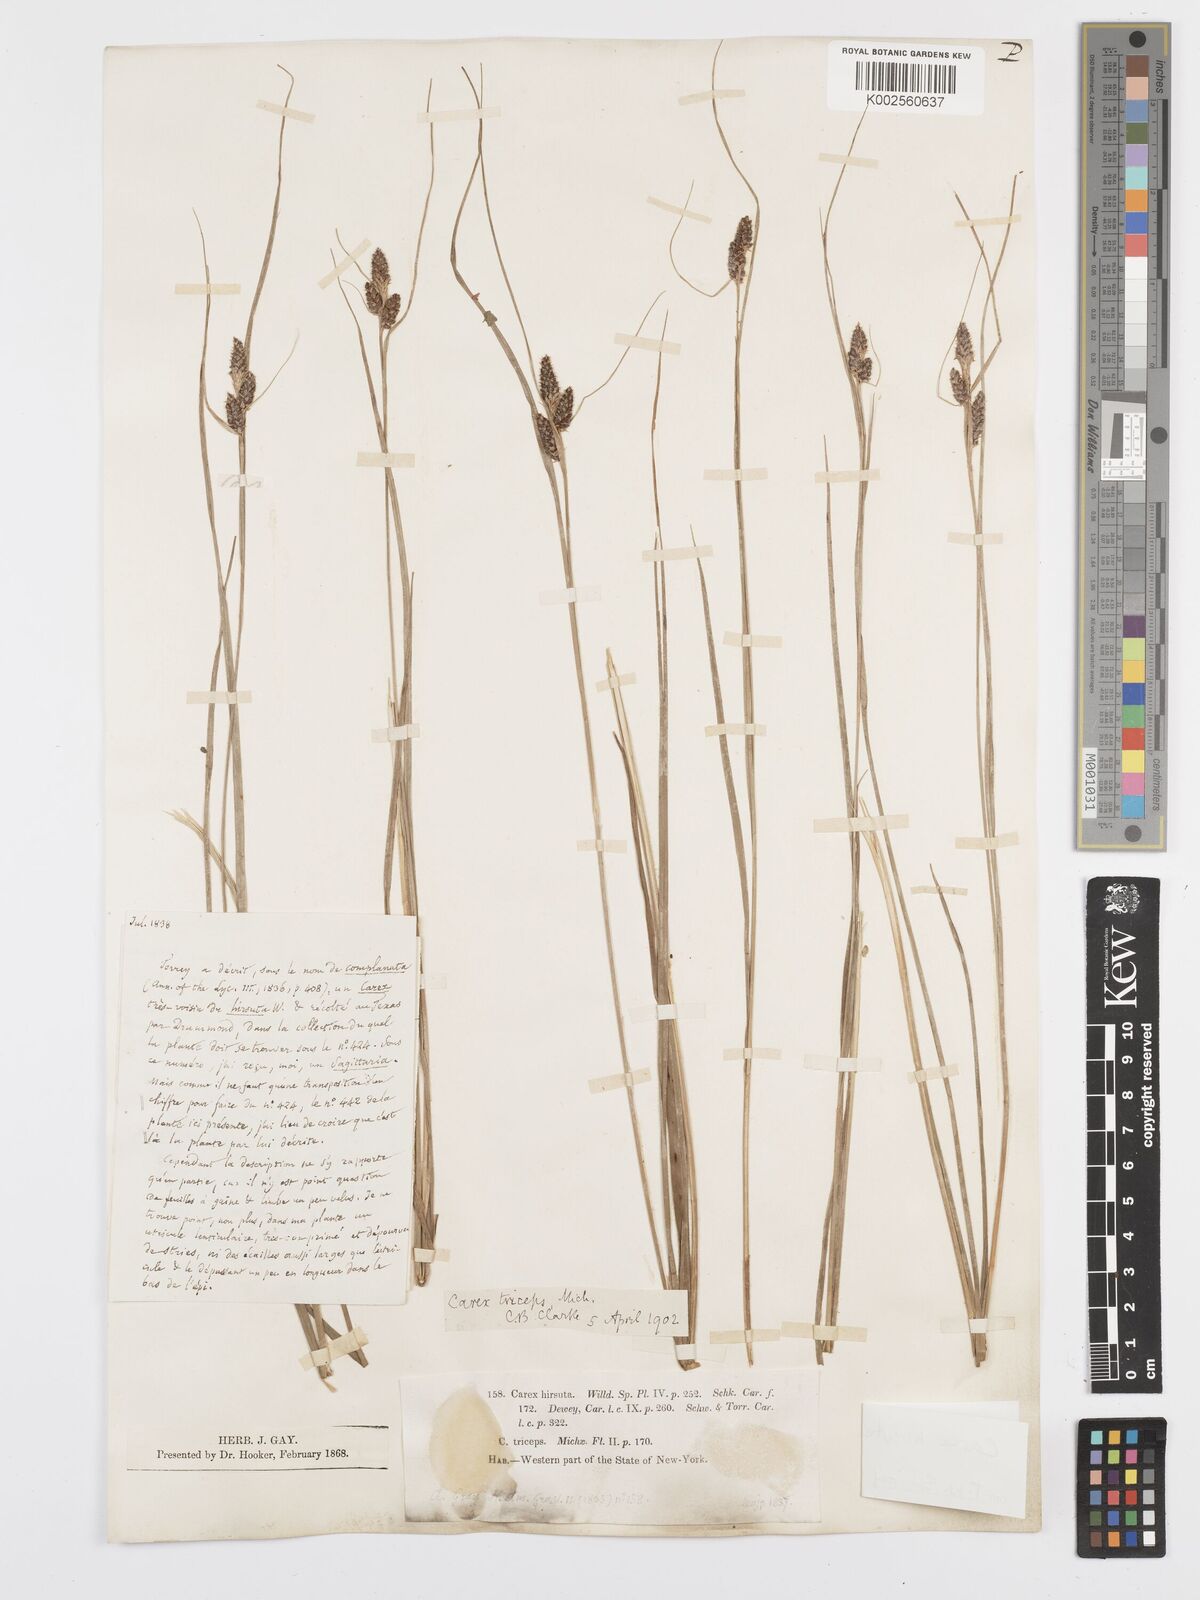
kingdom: Plantae
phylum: Tracheophyta
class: Liliopsida
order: Poales
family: Cyperaceae
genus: Carex
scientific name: Carex hirsutella
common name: Fuzzy wuzzy sedge
